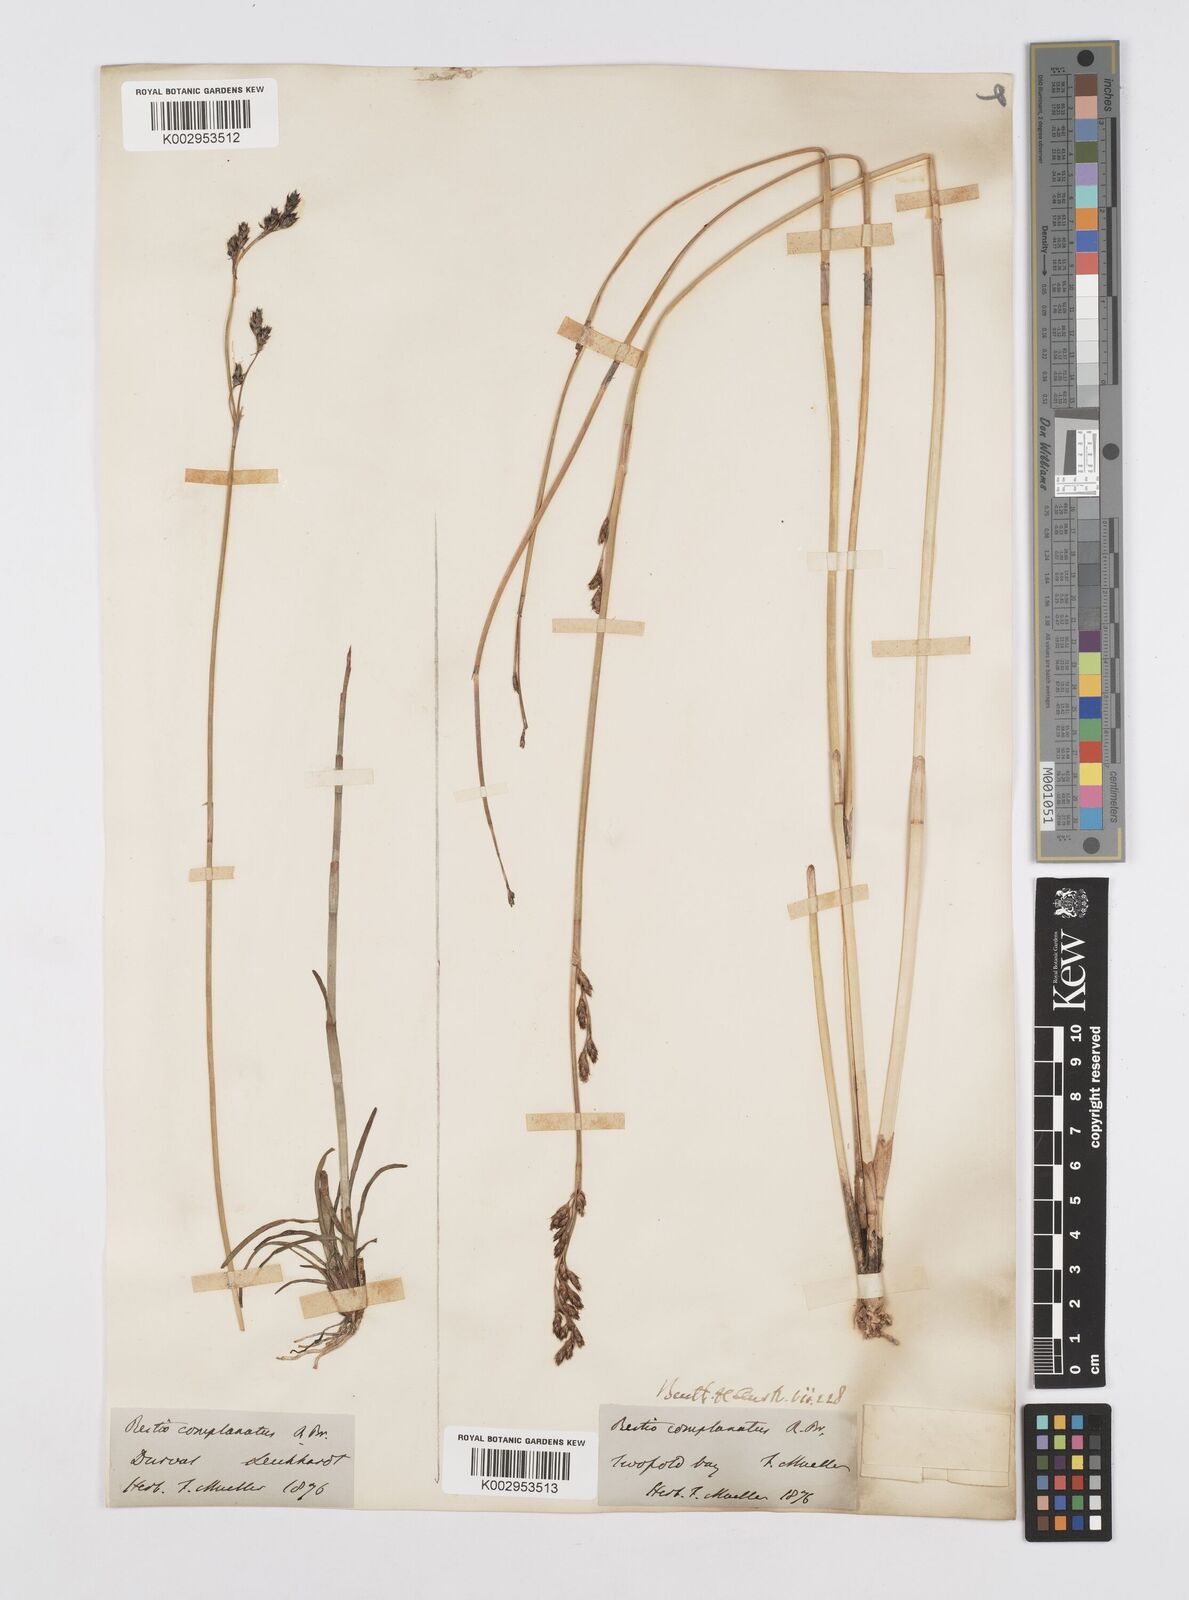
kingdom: Plantae
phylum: Tracheophyta
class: Liliopsida
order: Poales
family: Restionaceae
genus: Eurychorda
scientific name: Eurychorda complanata
